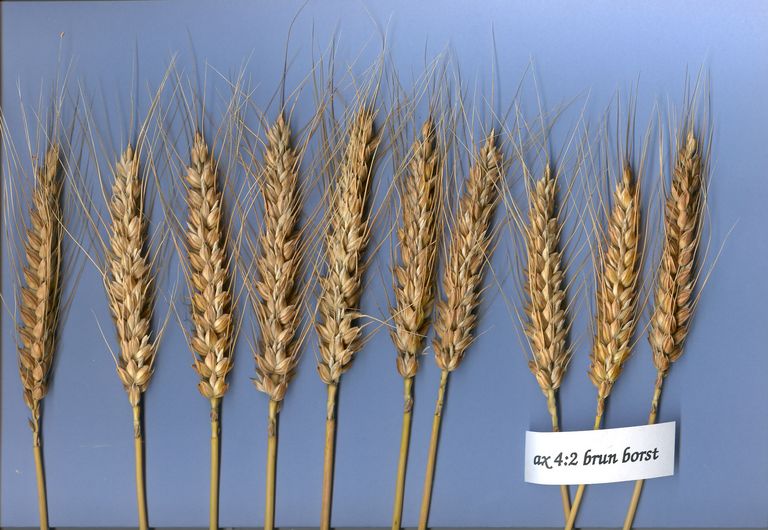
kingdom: Plantae
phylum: Tracheophyta
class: Liliopsida
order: Poales
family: Poaceae
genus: Triticum
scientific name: Triticum aestivum
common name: Common wheat
